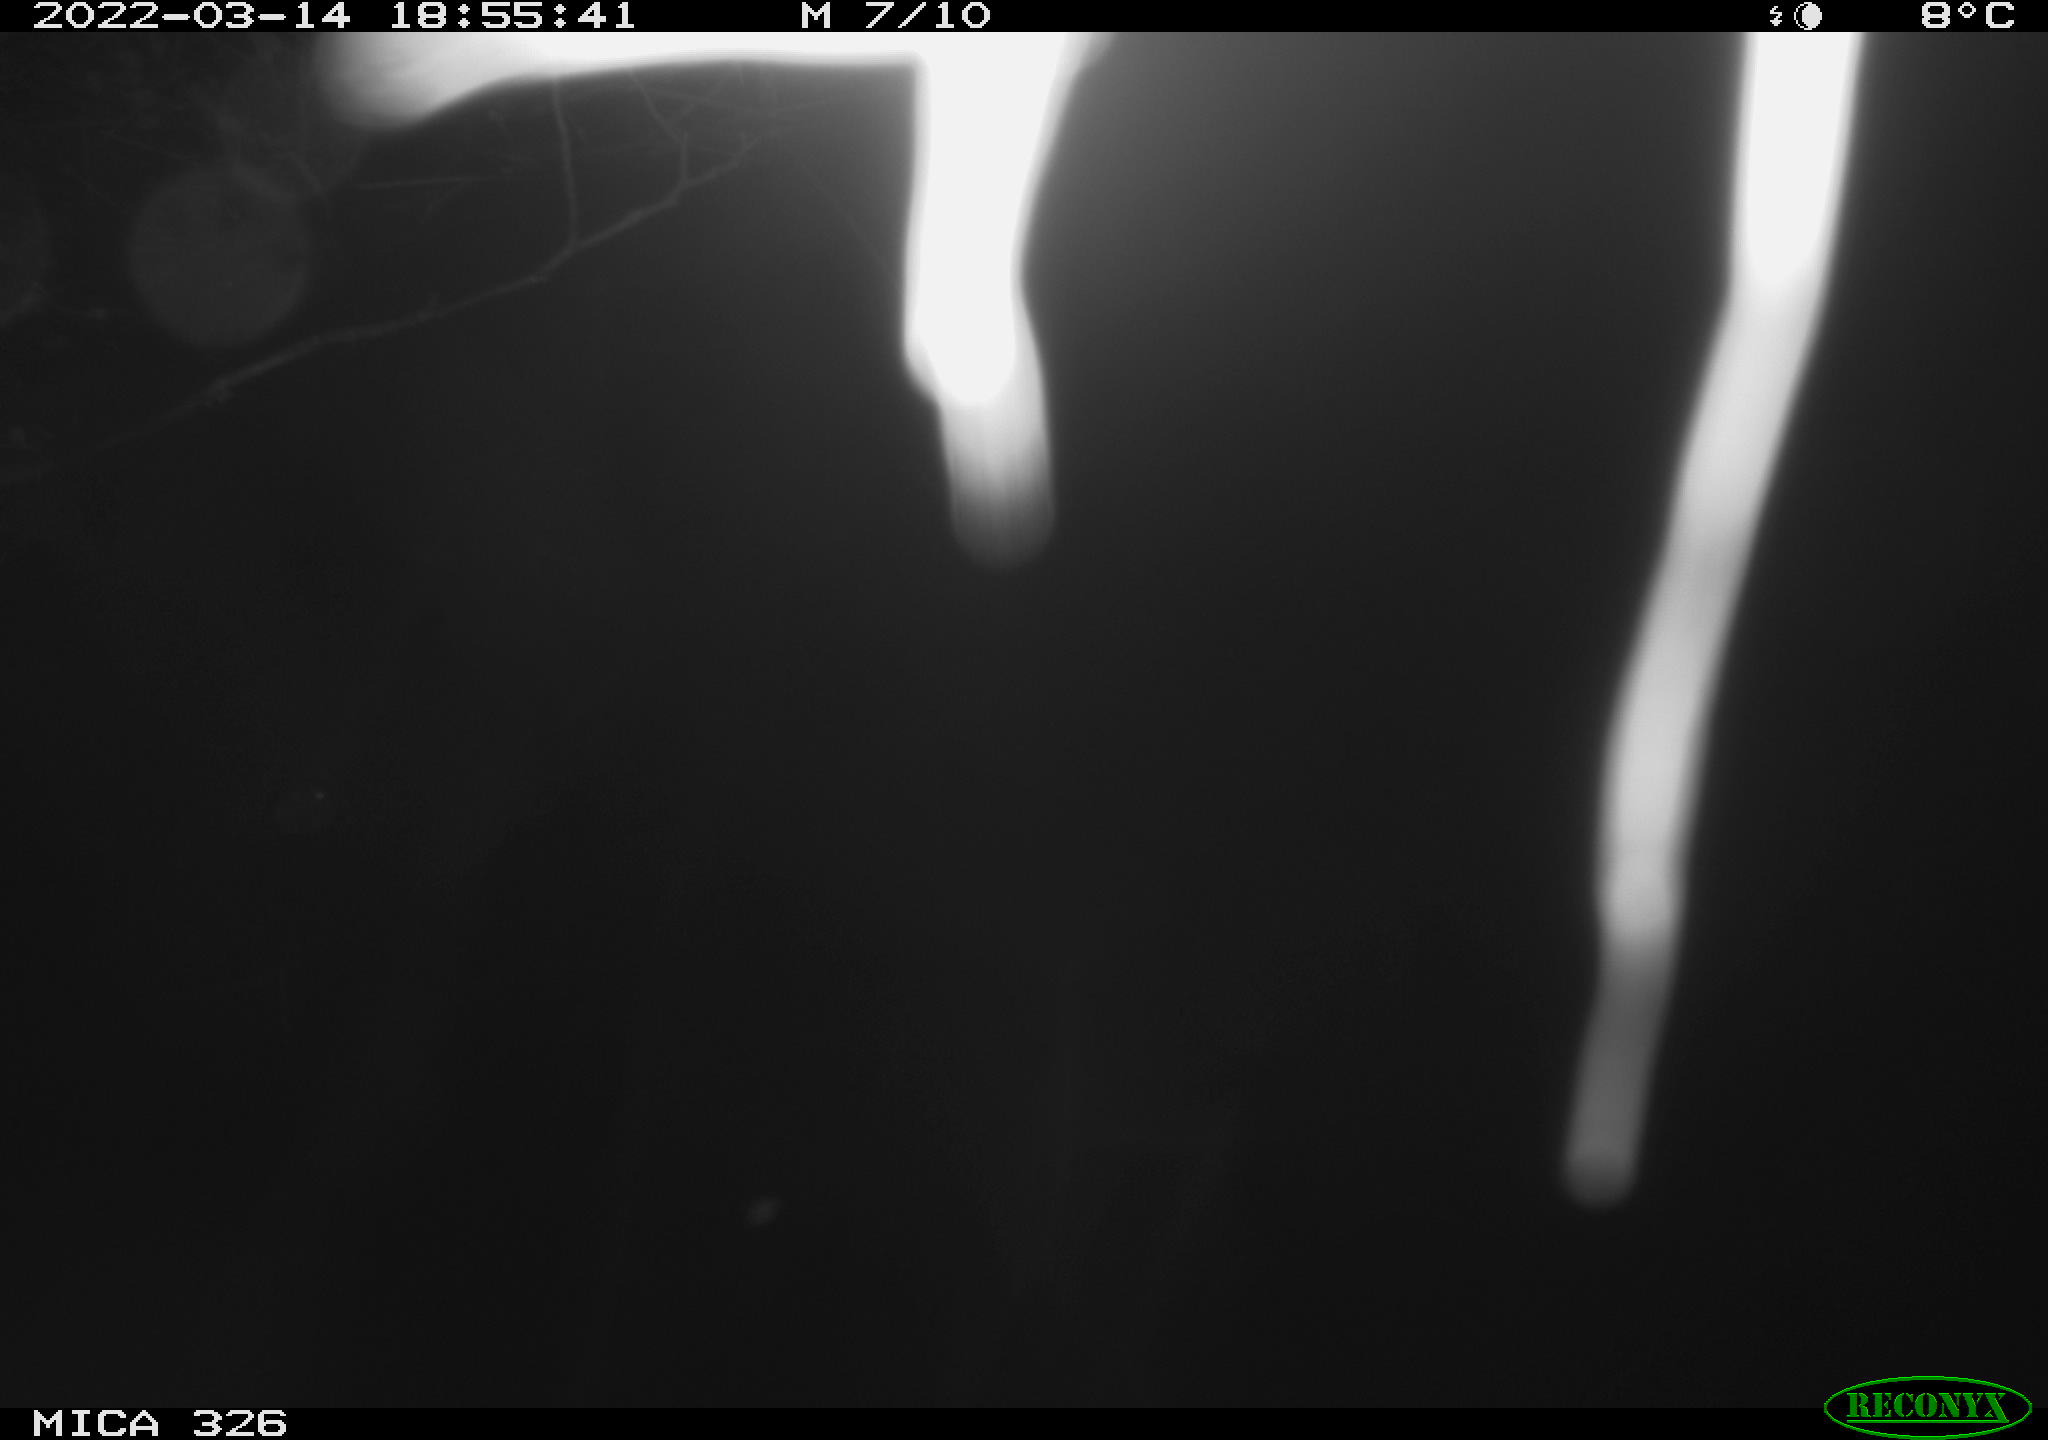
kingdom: Animalia
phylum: Chordata
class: Aves
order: Gruiformes
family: Rallidae
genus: Gallinula
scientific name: Gallinula chloropus
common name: Common moorhen
